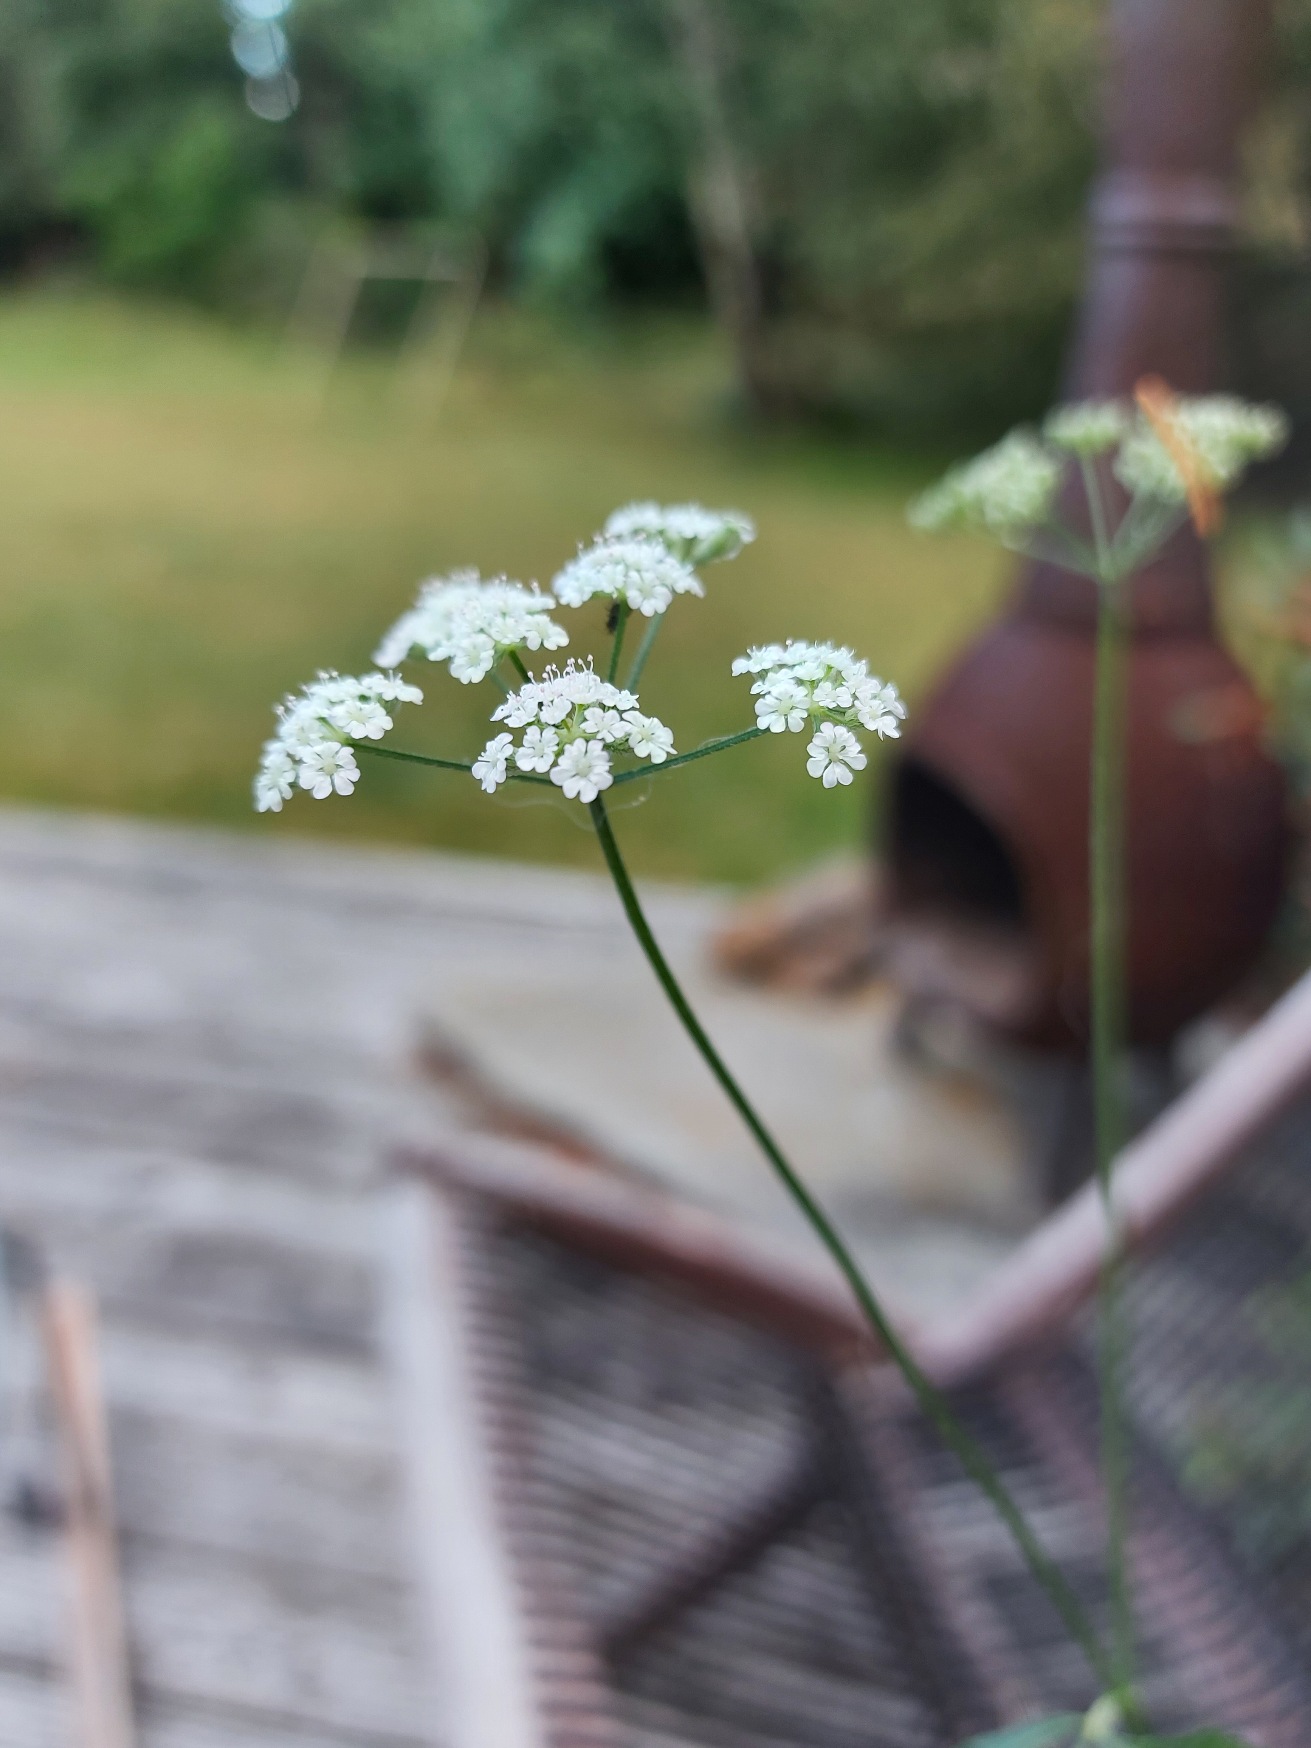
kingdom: Plantae
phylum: Tracheophyta
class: Magnoliopsida
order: Apiales
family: Apiaceae
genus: Torilis
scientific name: Torilis japonica
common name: Hvas randfrø
